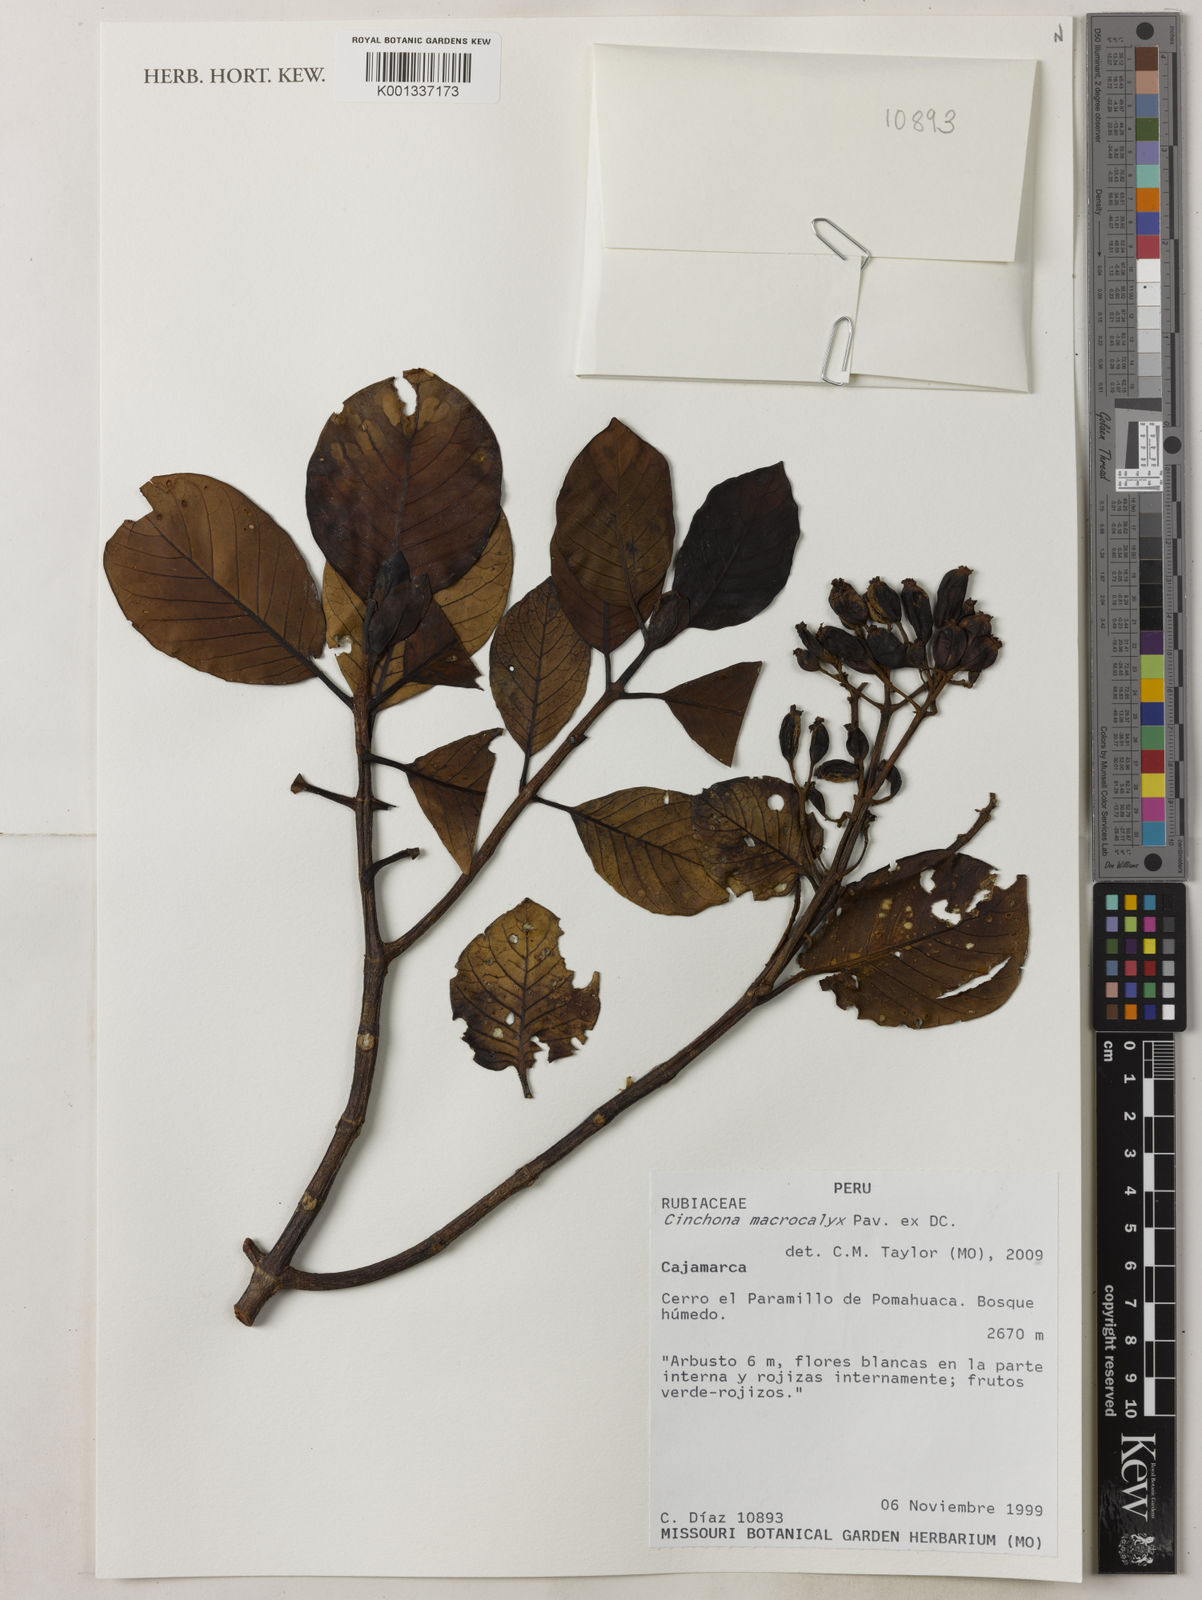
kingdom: Plantae
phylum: Tracheophyta
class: Magnoliopsida
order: Gentianales
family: Rubiaceae
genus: Cinchona
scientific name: Cinchona macrocalyx
